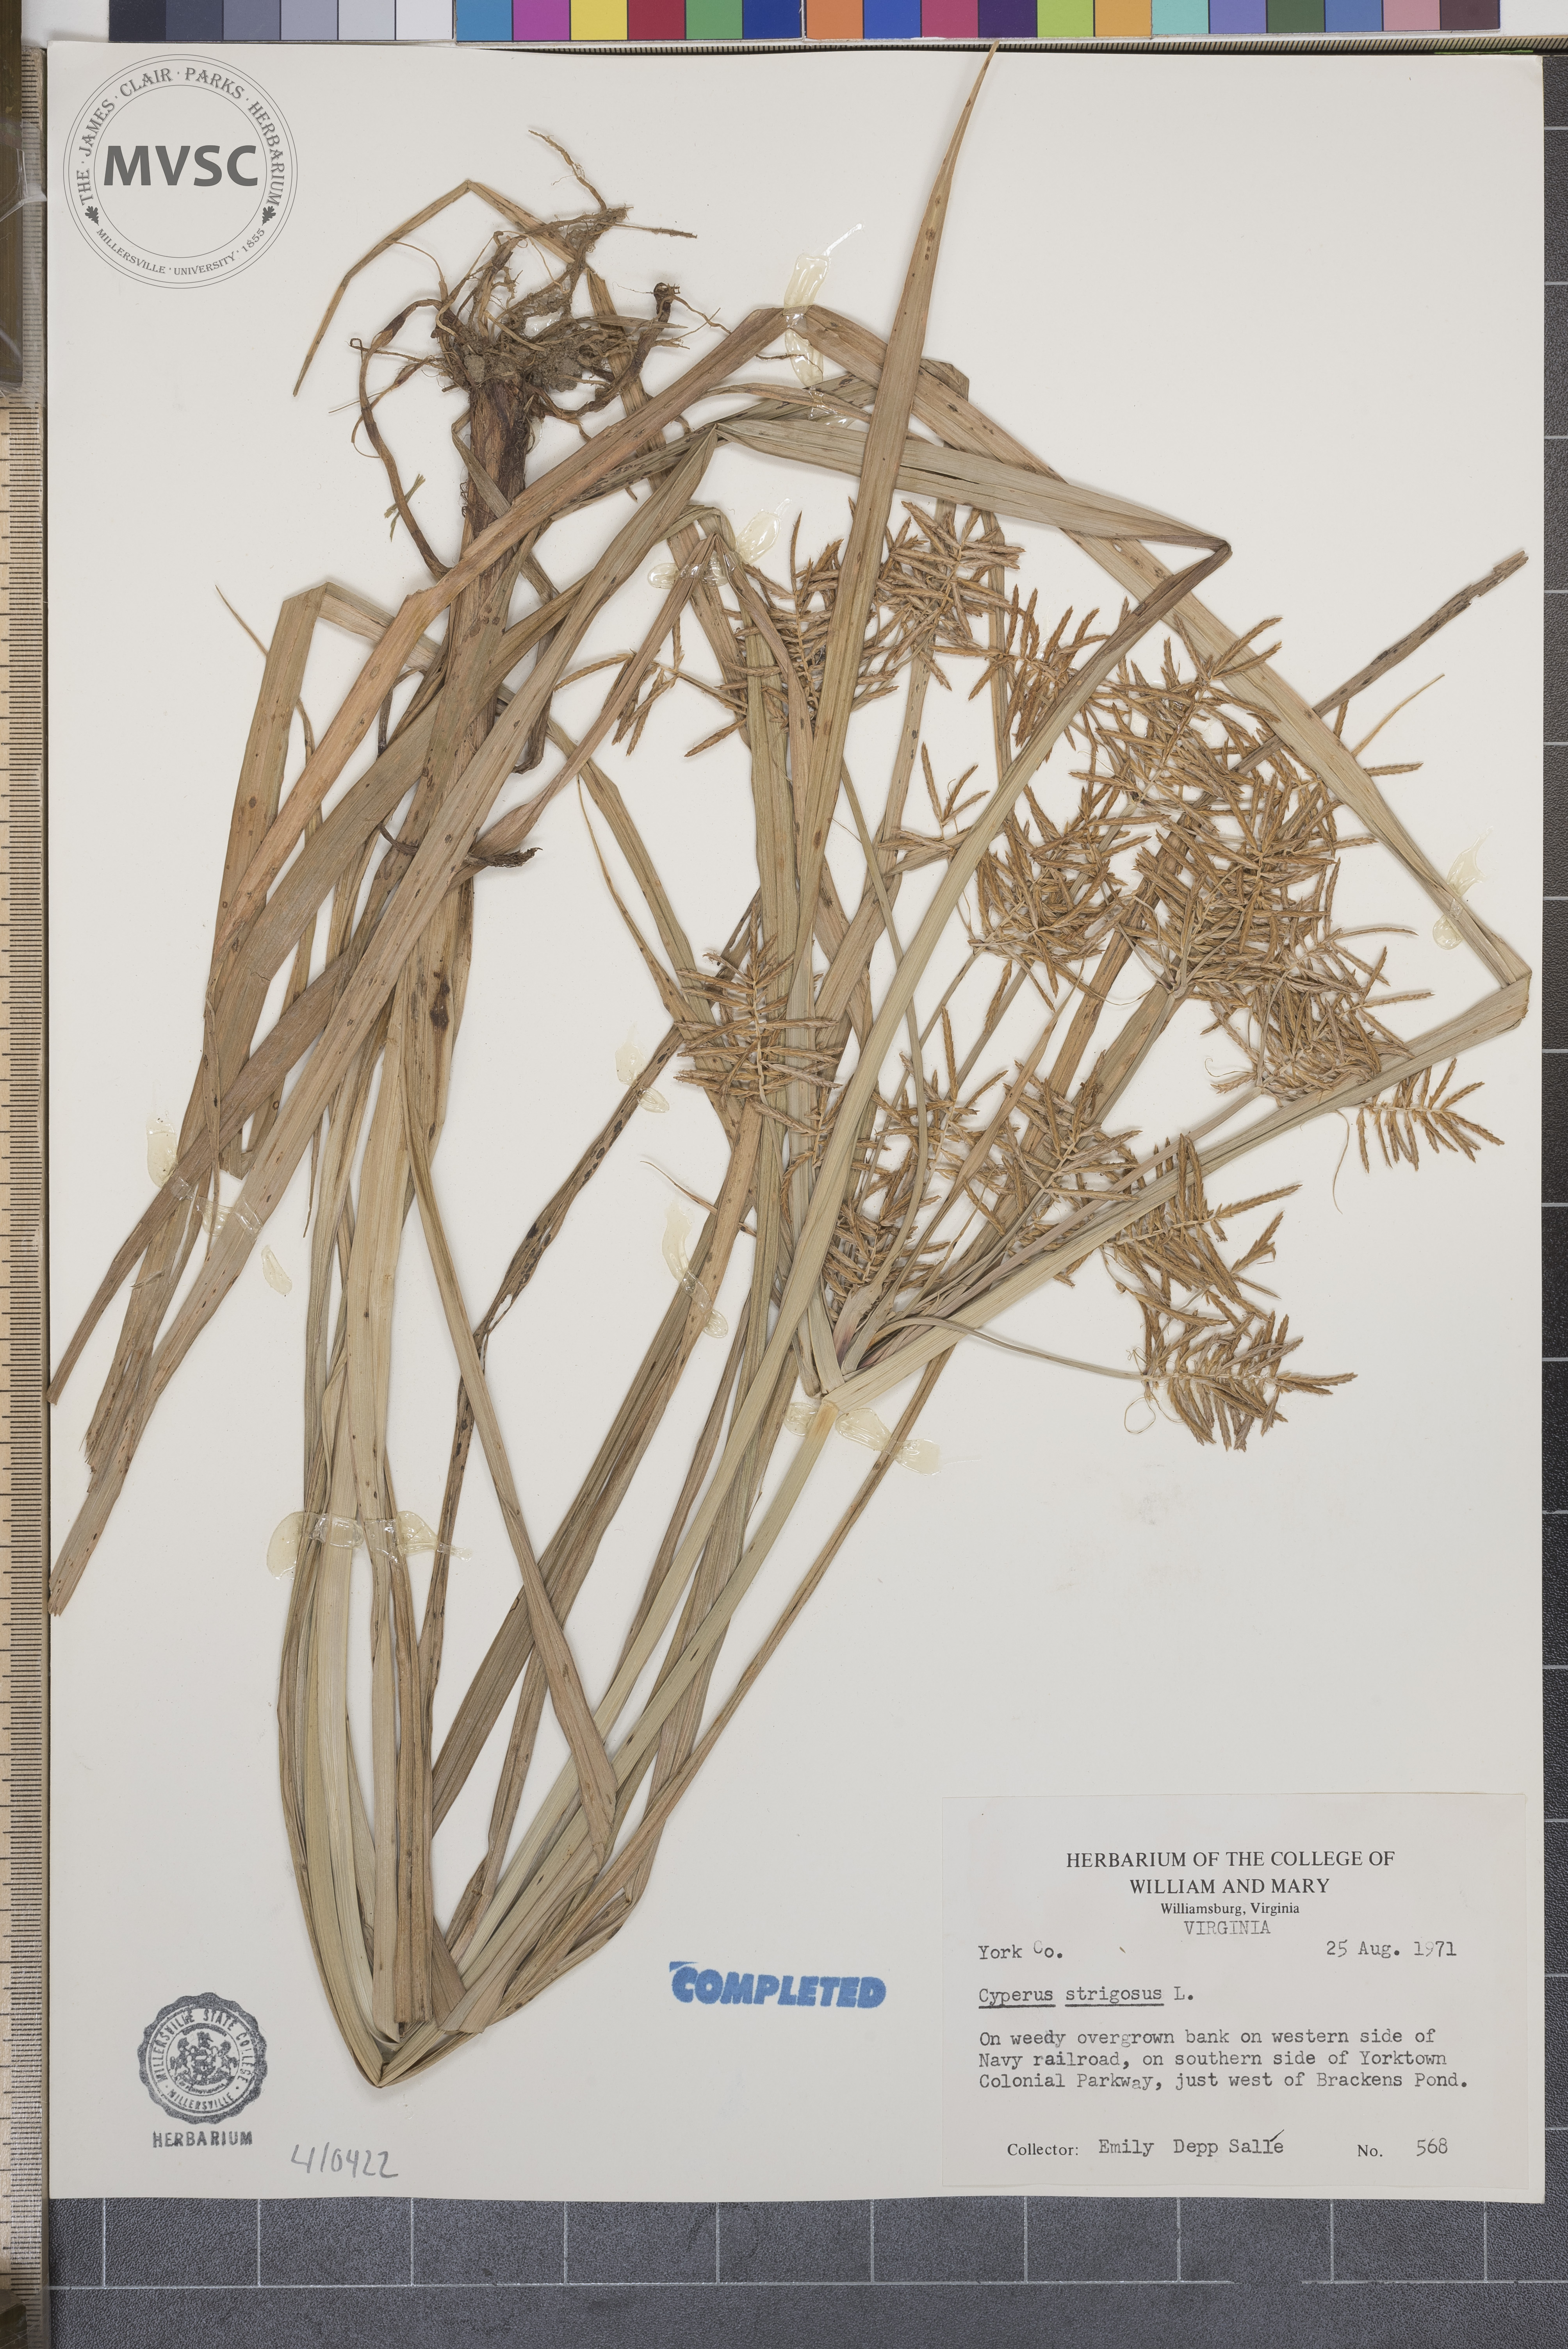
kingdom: Plantae
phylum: Tracheophyta
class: Liliopsida
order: Poales
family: Cyperaceae
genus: Cyperus
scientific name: Cyperus strigosus
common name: False nutsedge
